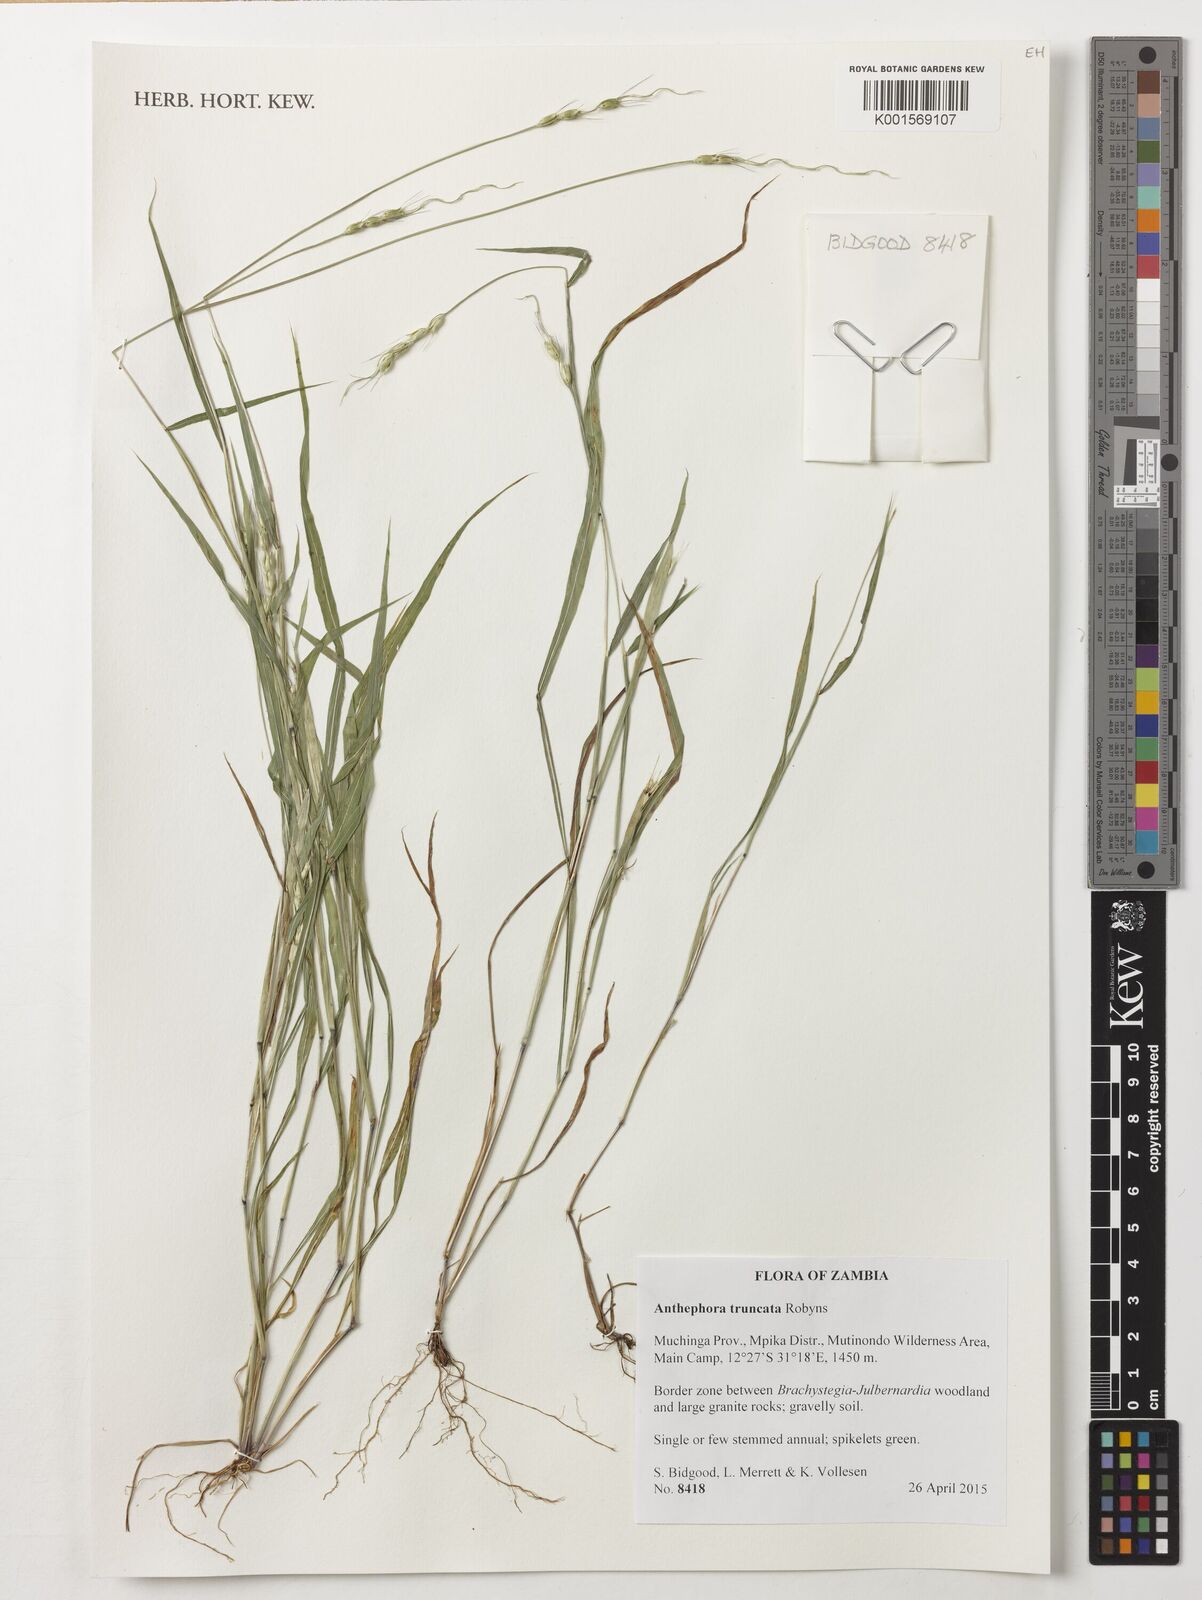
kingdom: Plantae
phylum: Tracheophyta
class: Liliopsida
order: Poales
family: Poaceae
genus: Anthephora
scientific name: Anthephora truncata
